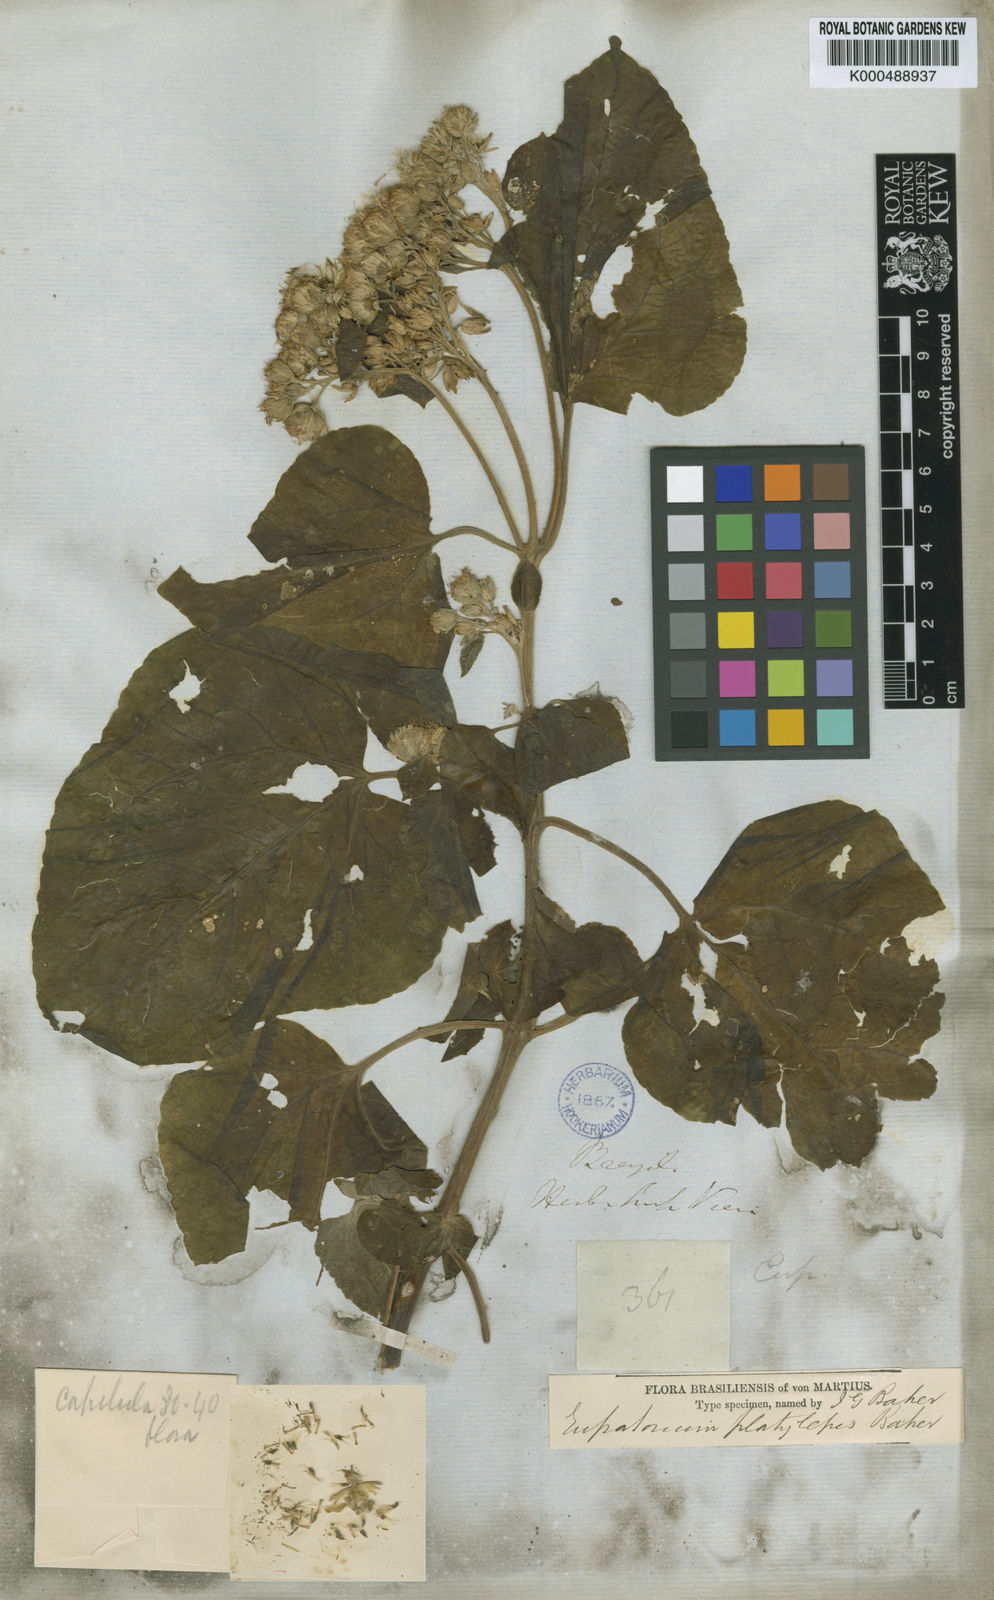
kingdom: Plantae
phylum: Tracheophyta
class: Magnoliopsida
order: Asterales
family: Asteraceae
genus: Dasycondylus
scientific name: Dasycondylus platylepis
